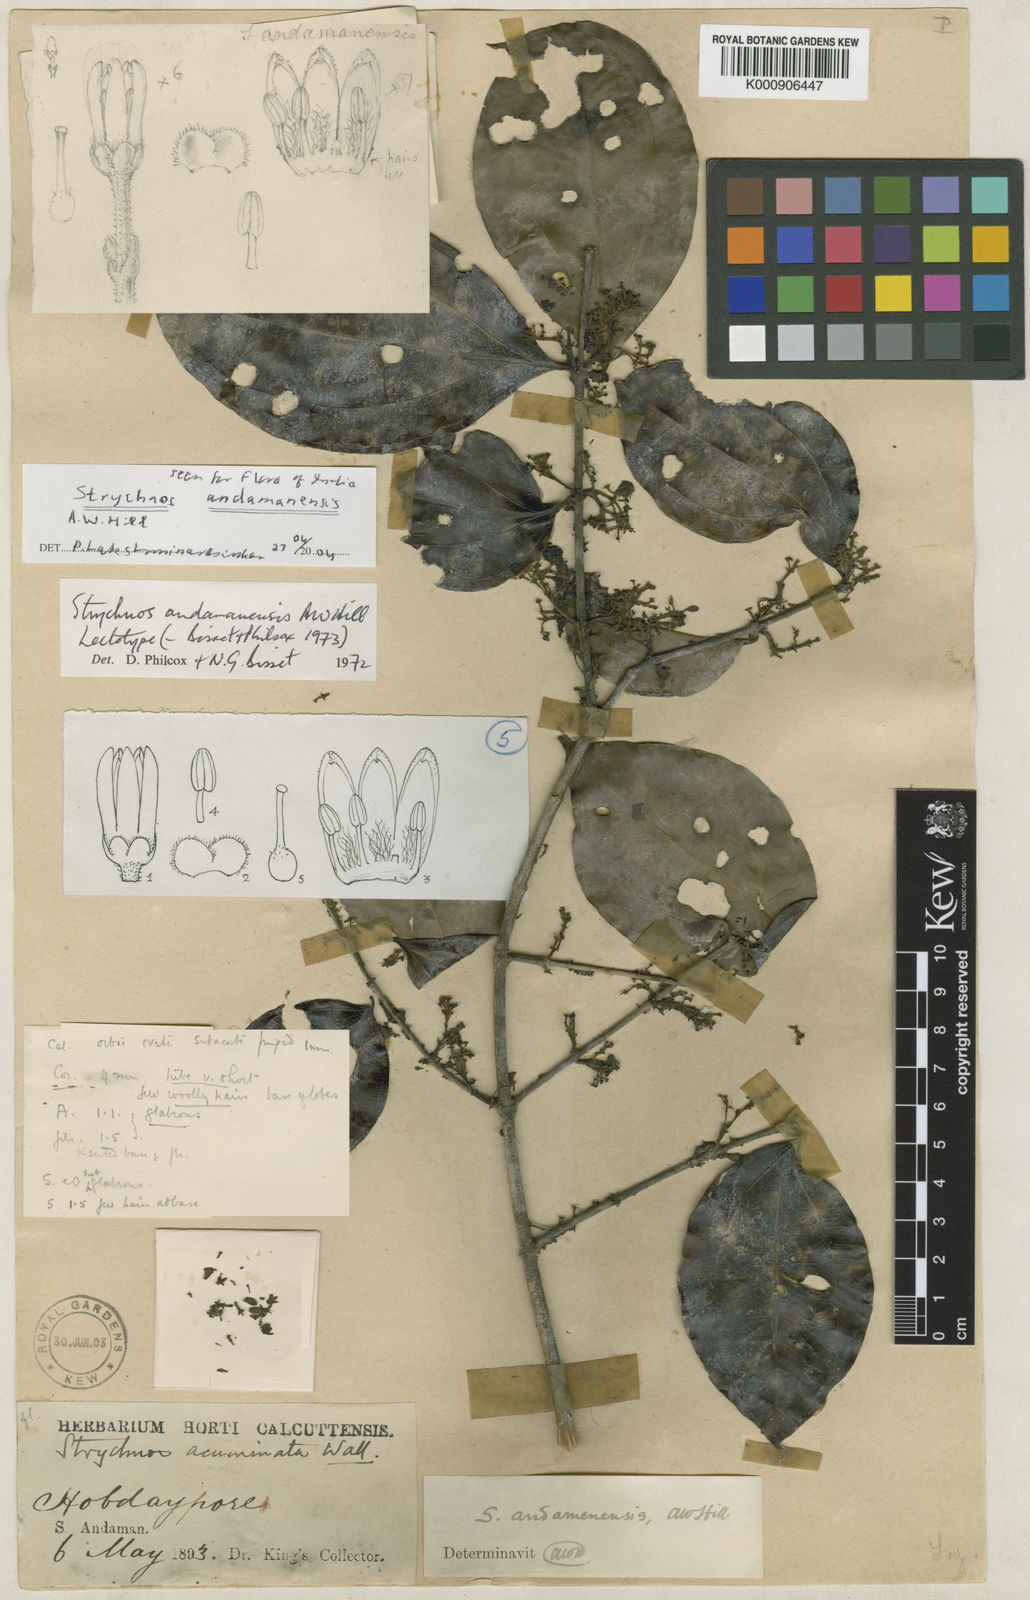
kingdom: Plantae
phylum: Tracheophyta
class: Magnoliopsida
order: Gentianales
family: Loganiaceae
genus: Strychnos
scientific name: Strychnos andamanensis
